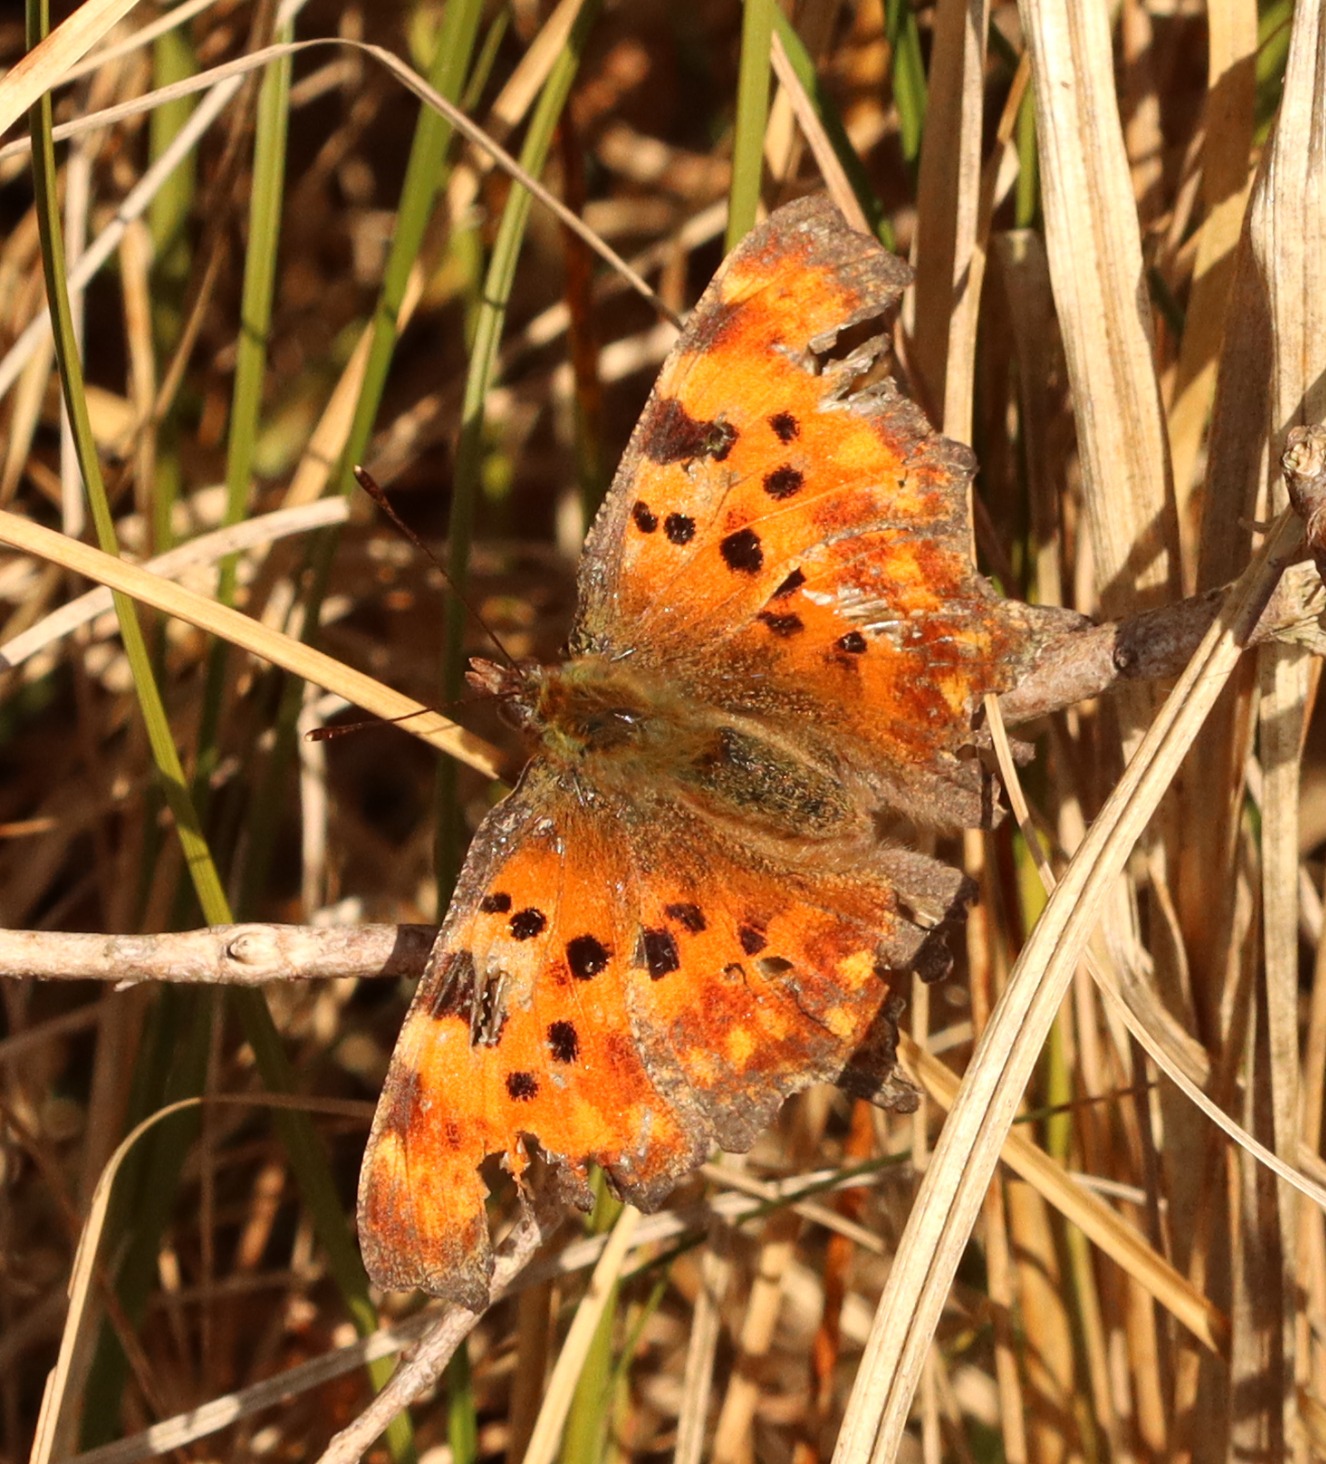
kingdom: Animalia
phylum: Arthropoda
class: Insecta
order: Lepidoptera
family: Nymphalidae
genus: Polygonia
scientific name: Polygonia c-album
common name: Det hvide C
